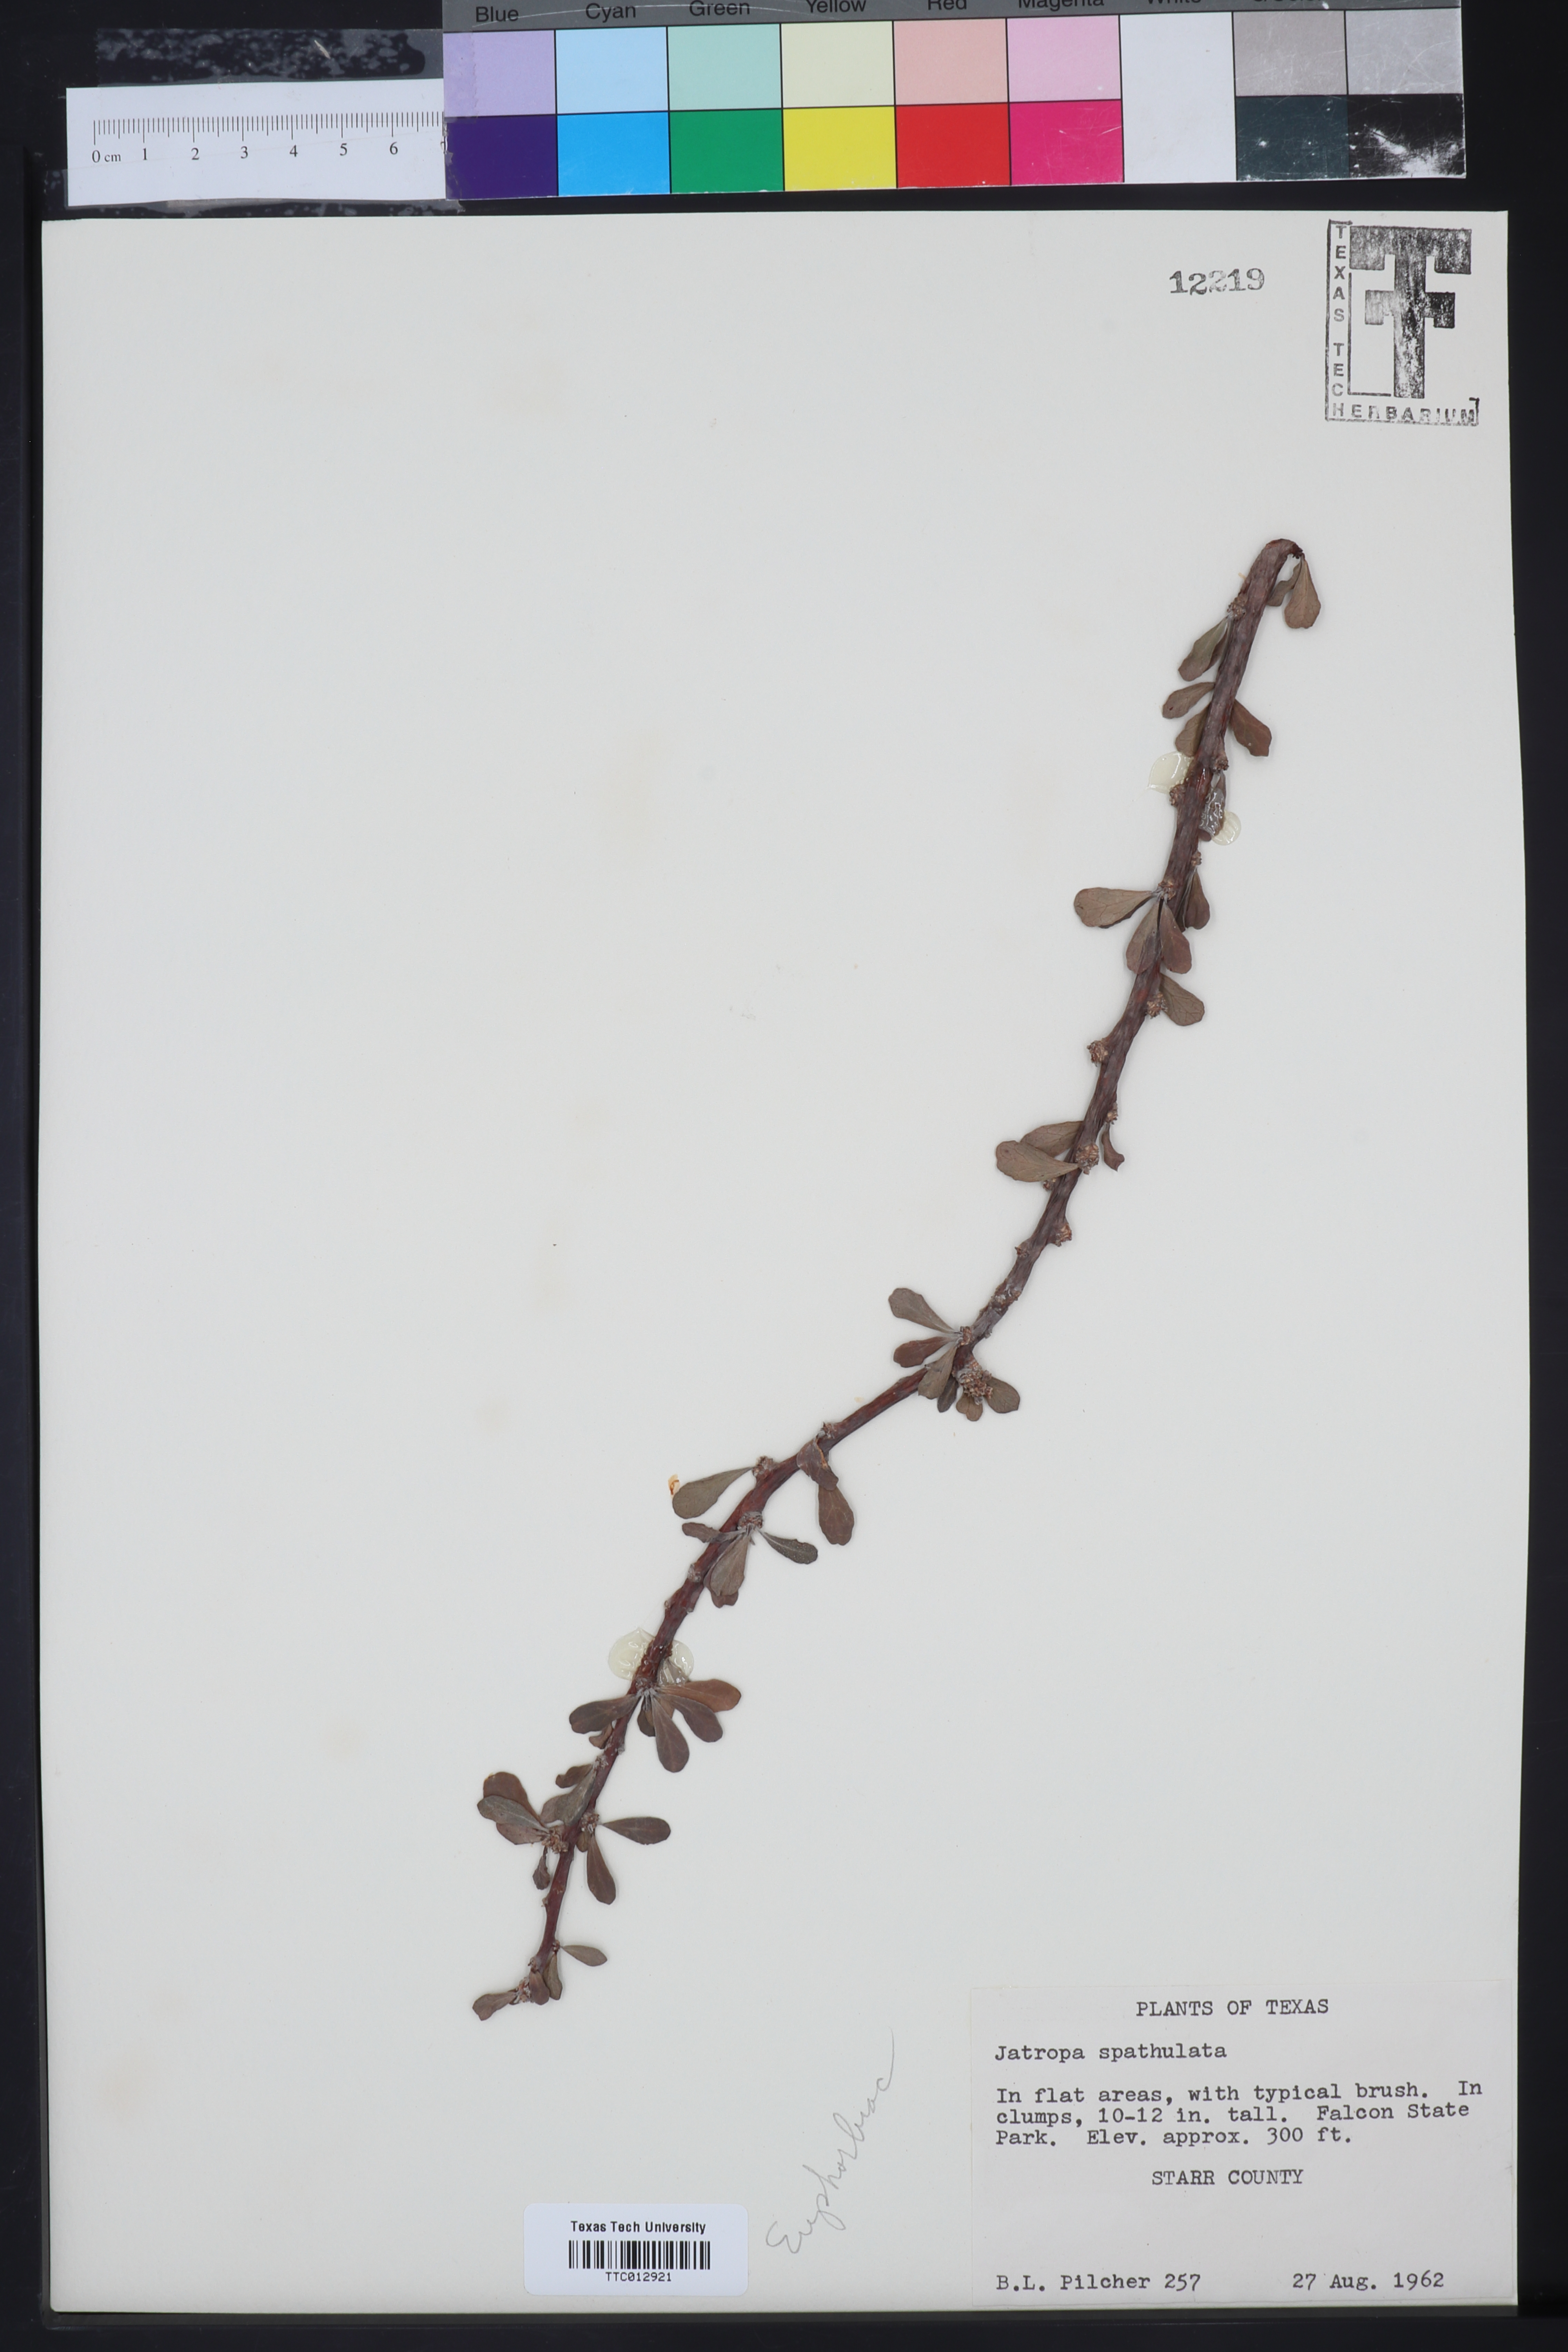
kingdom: Plantae
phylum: Tracheophyta
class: Magnoliopsida
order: Malpighiales
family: Euphorbiaceae
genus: Jatropha
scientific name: Jatropha dioica
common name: Leatherstem
